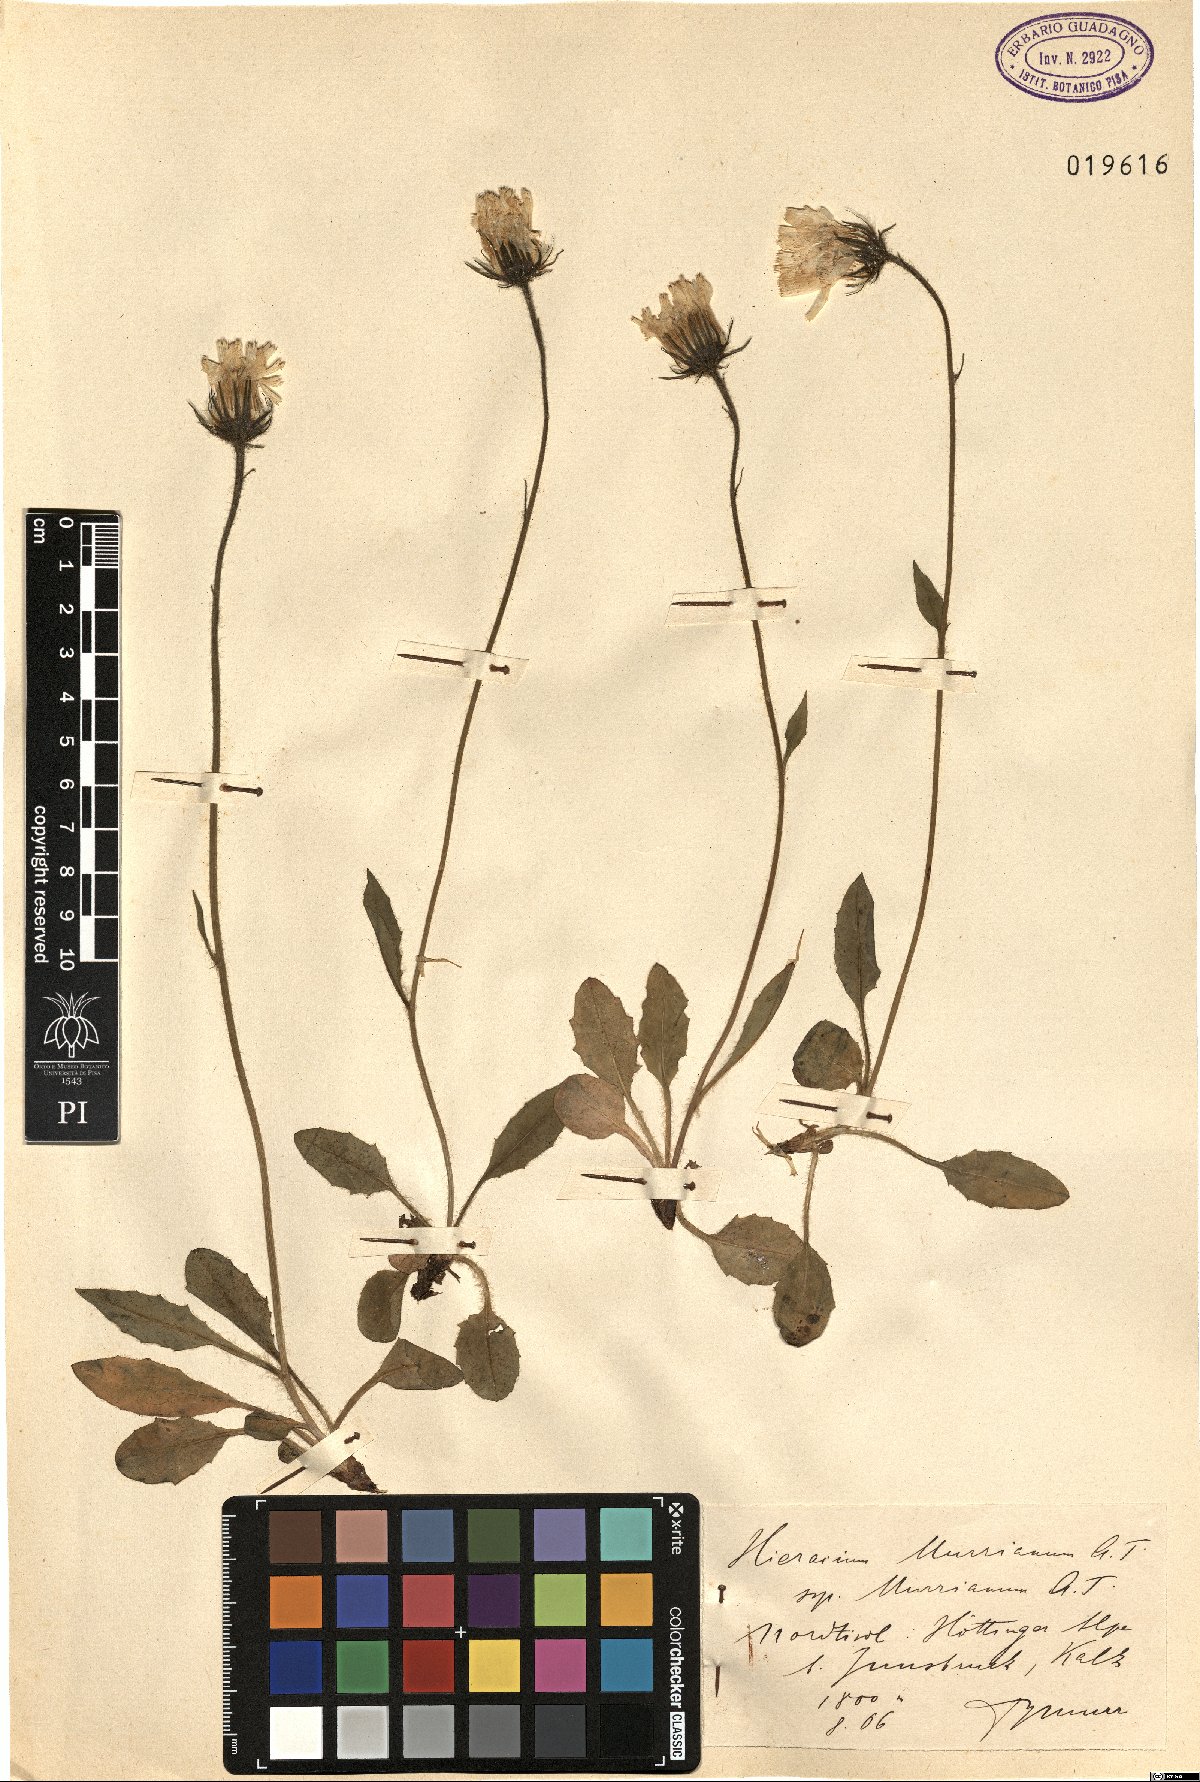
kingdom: Plantae
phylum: Tracheophyta
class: Magnoliopsida
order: Asterales
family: Asteraceae
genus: Hieracium
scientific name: Hieracium pallescens
